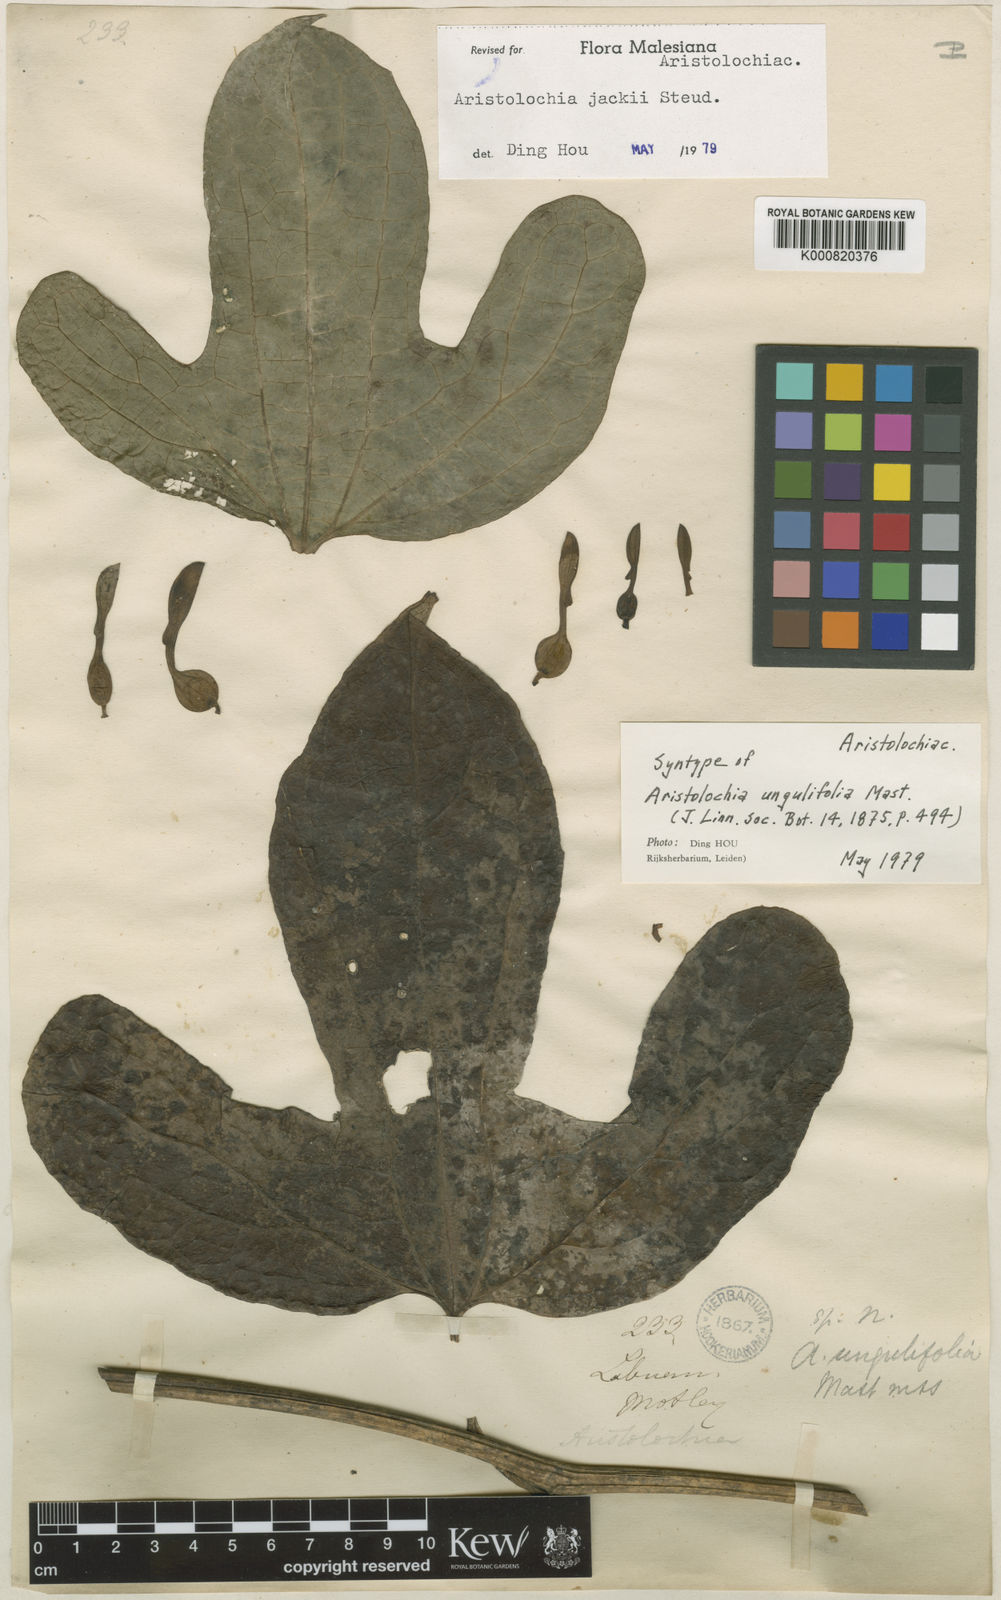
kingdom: Plantae
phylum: Tracheophyta
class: Magnoliopsida
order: Piperales
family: Aristolochiaceae
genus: Aristolochia
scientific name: Aristolochia jackii
